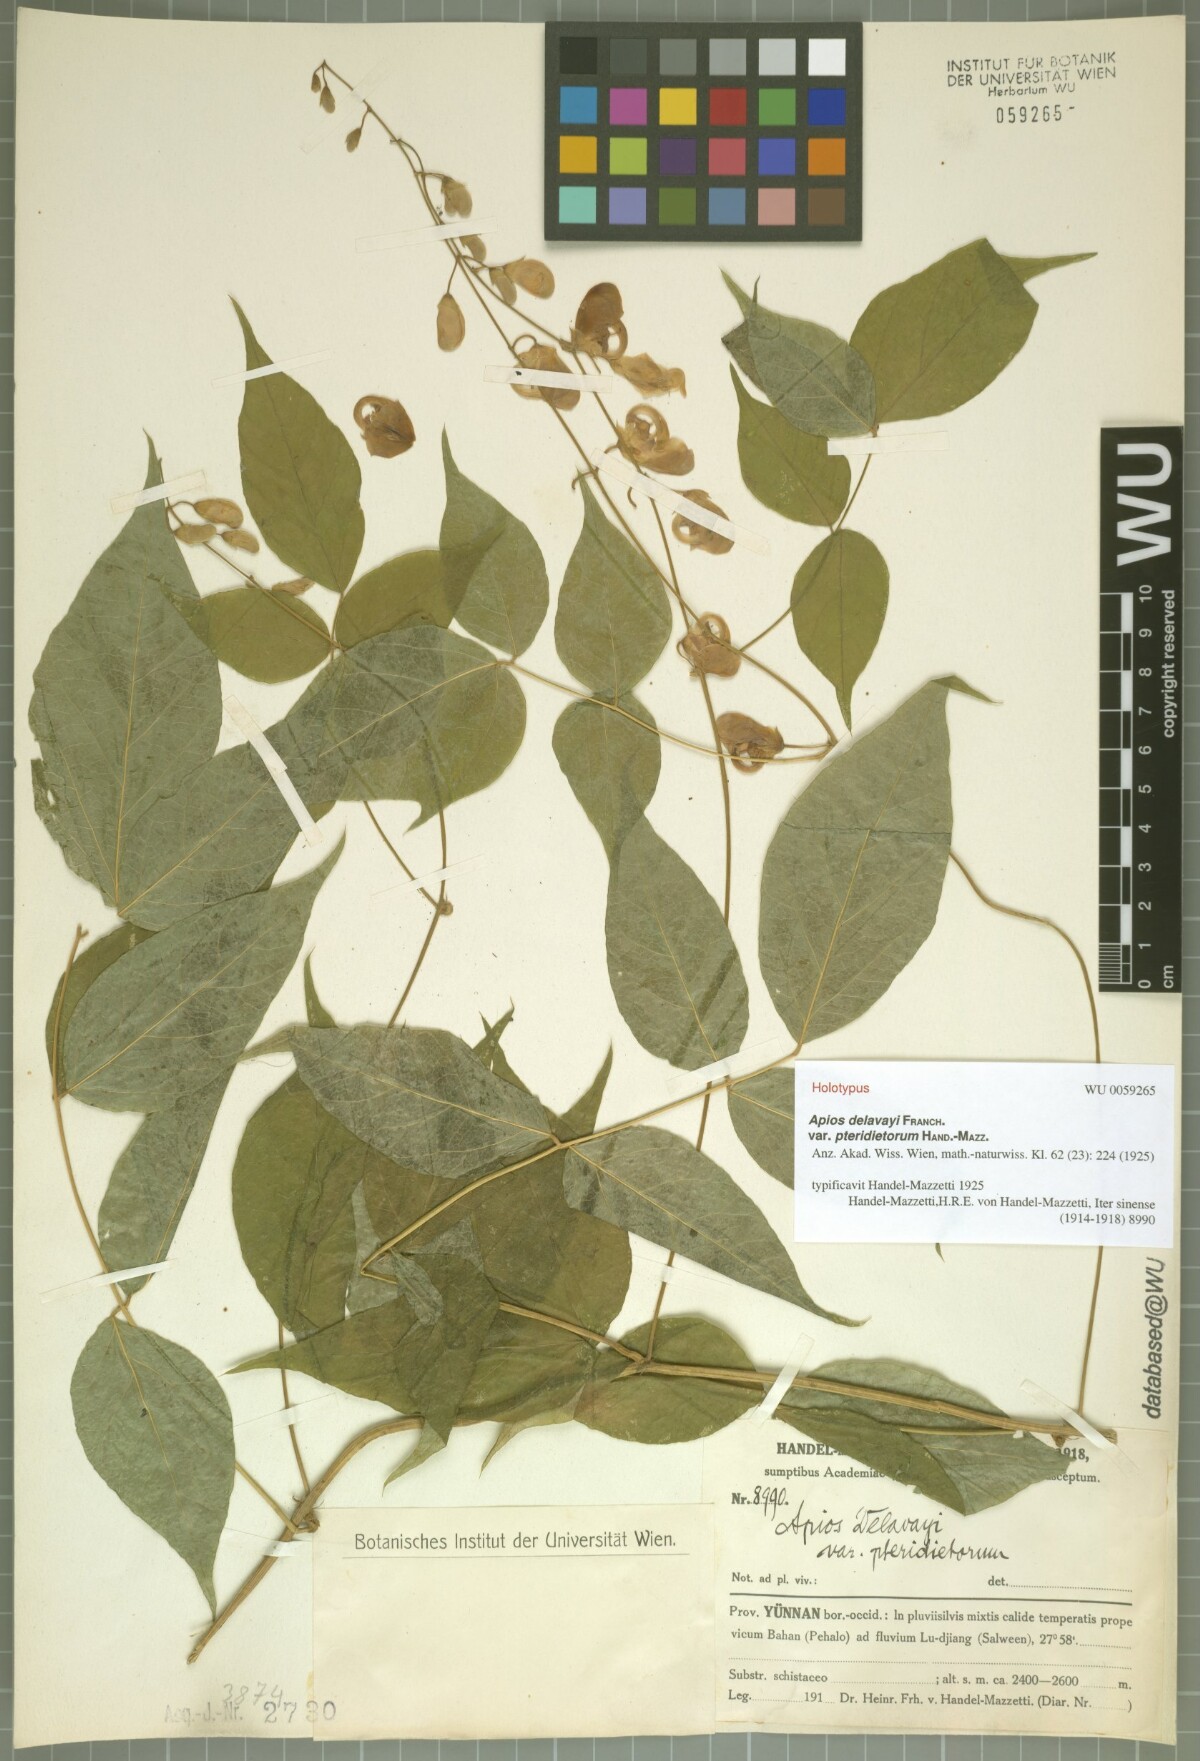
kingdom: Plantae
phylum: Tracheophyta
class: Magnoliopsida
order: Fabales
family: Fabaceae
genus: Apios
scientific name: Apios delavayi
